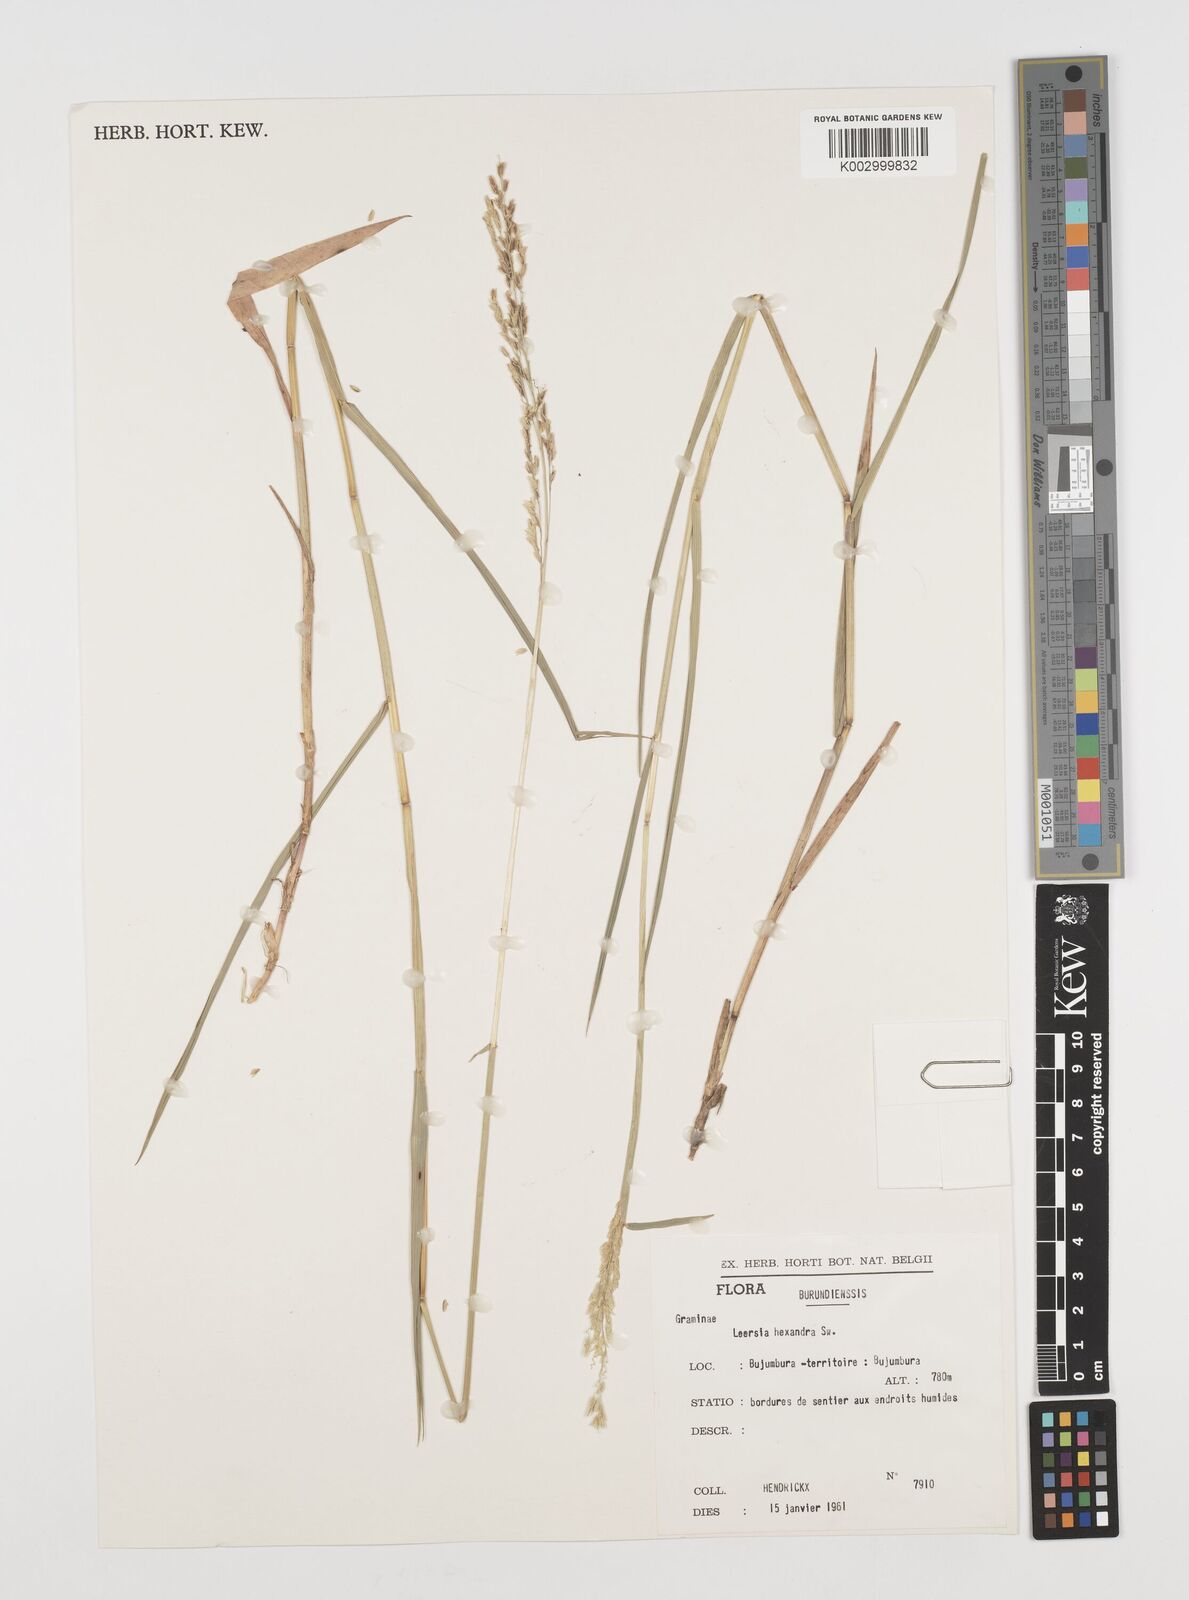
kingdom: Plantae
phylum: Tracheophyta
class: Liliopsida
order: Poales
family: Poaceae
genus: Leersia
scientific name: Leersia hexandra
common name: Southern cut grass
